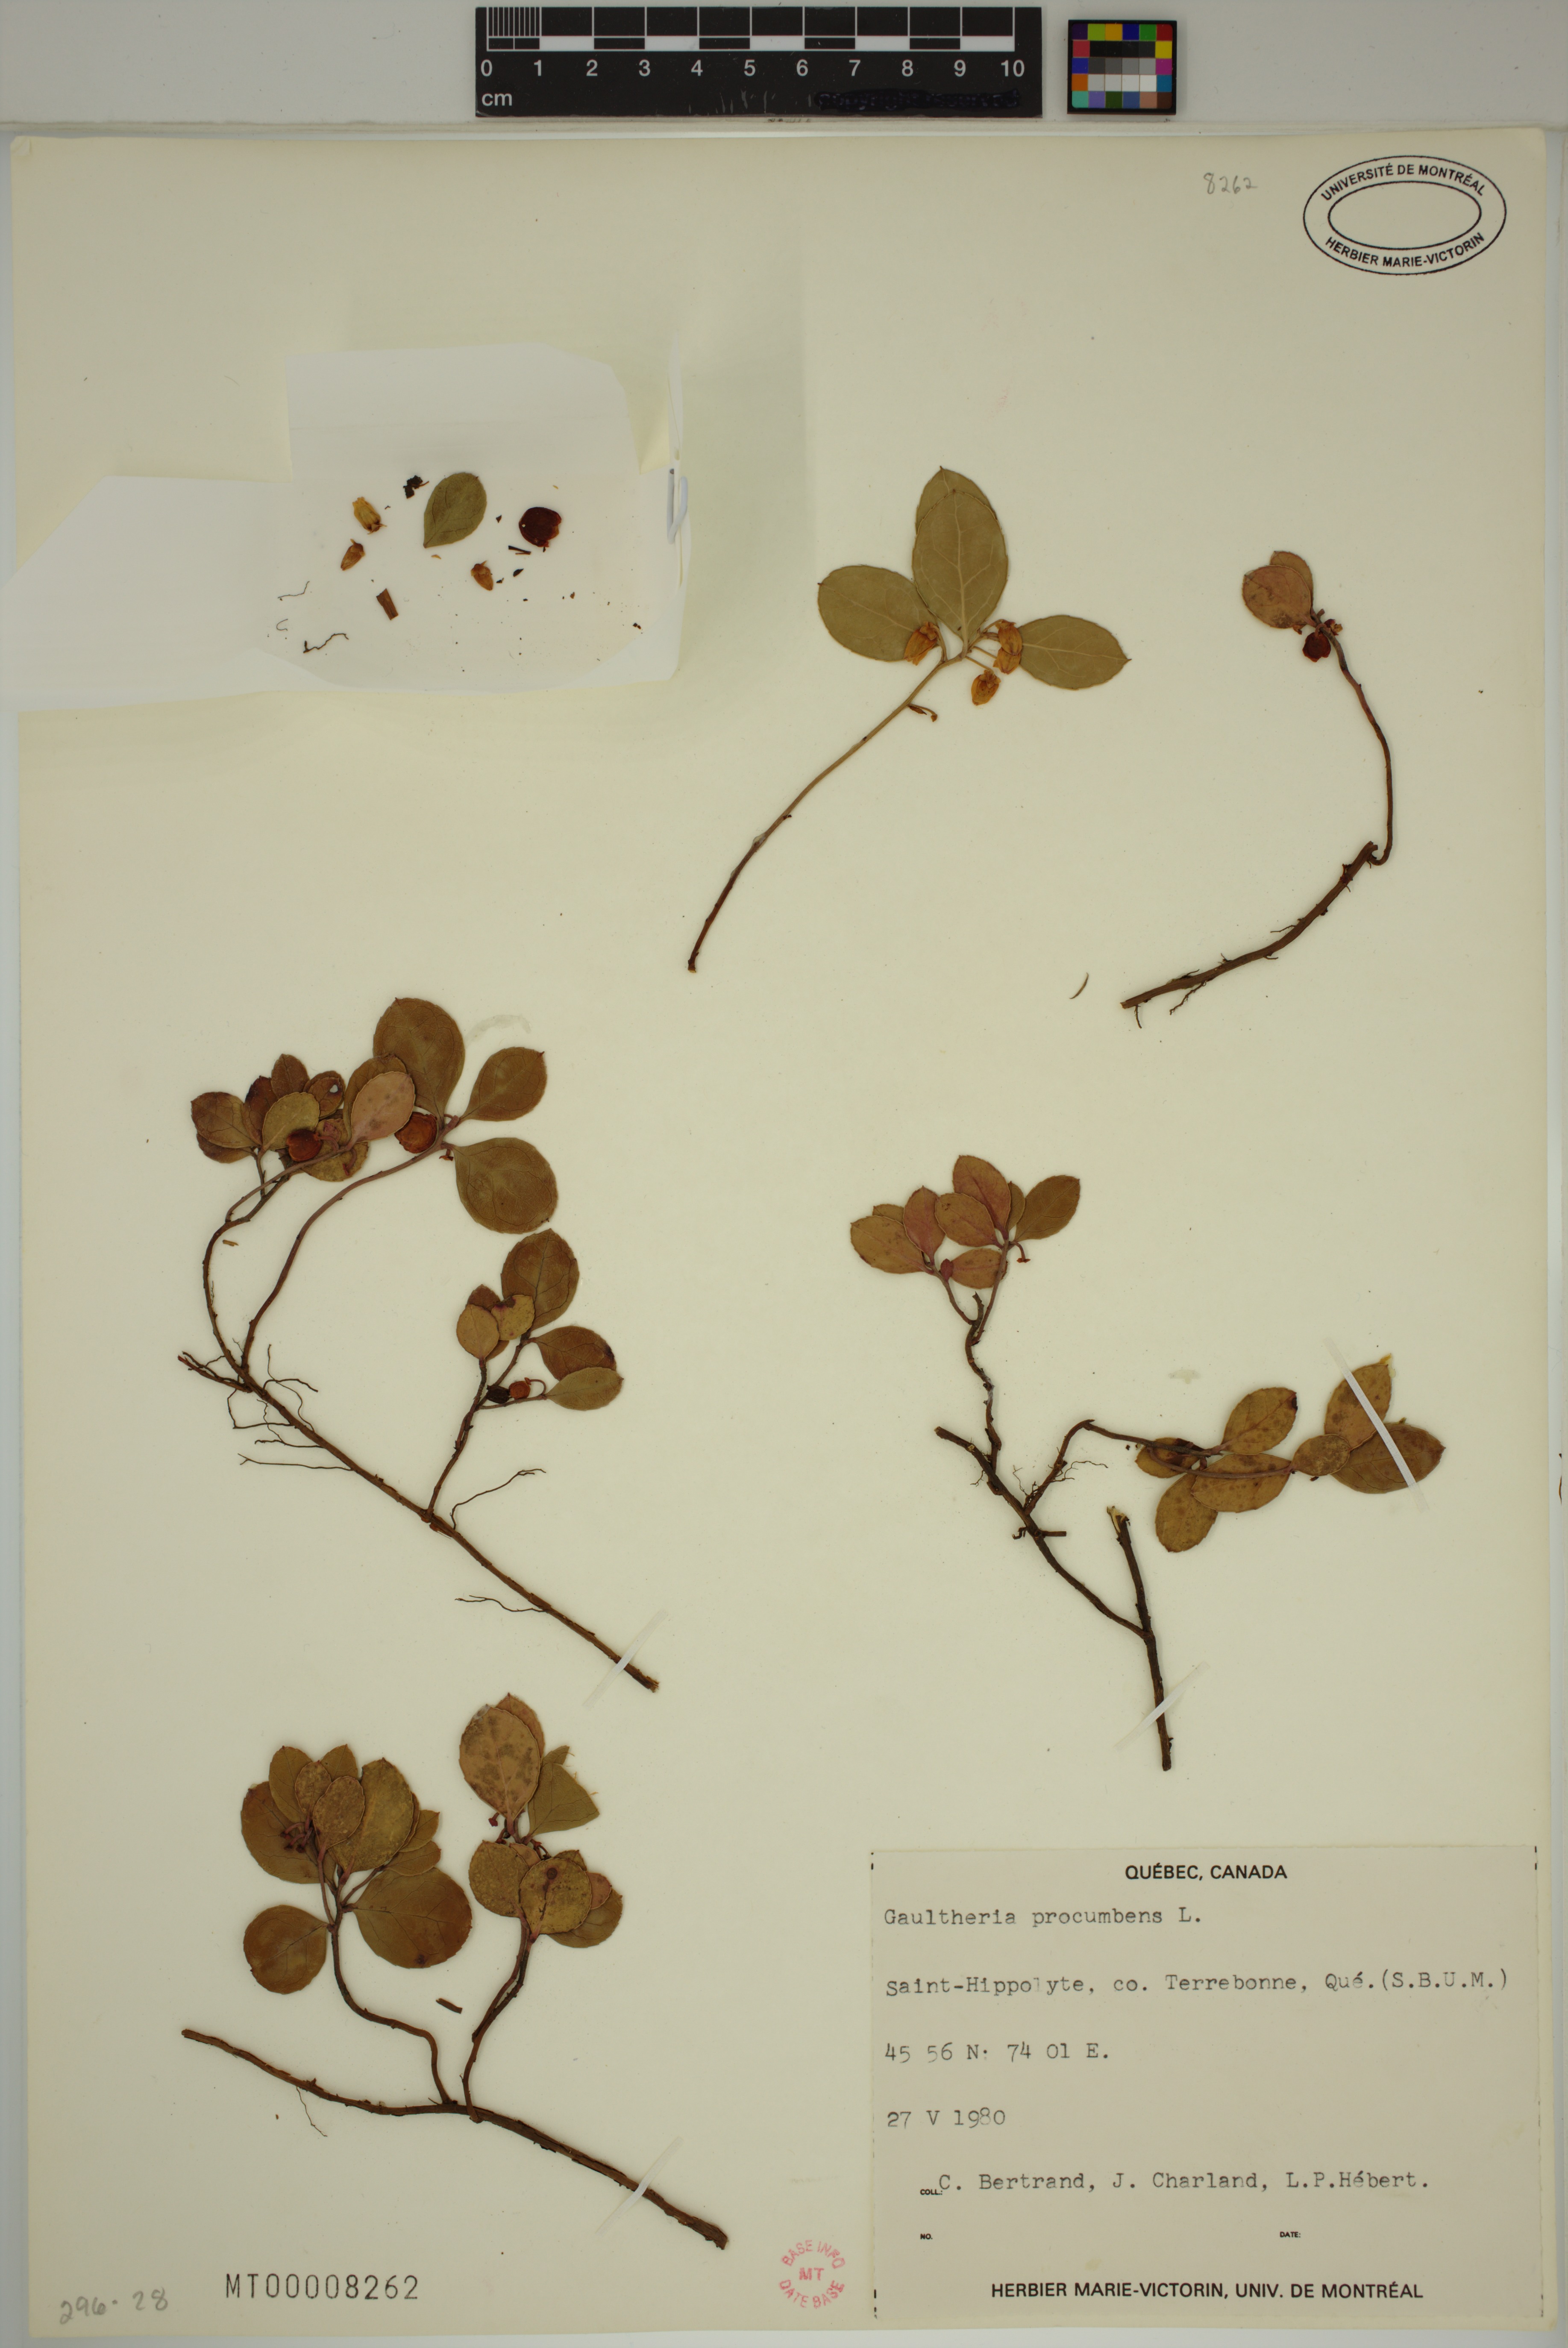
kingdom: Plantae
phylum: Tracheophyta
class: Magnoliopsida
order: Ericales
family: Ericaceae
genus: Gaultheria
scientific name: Gaultheria procumbens
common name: Checkerberry
